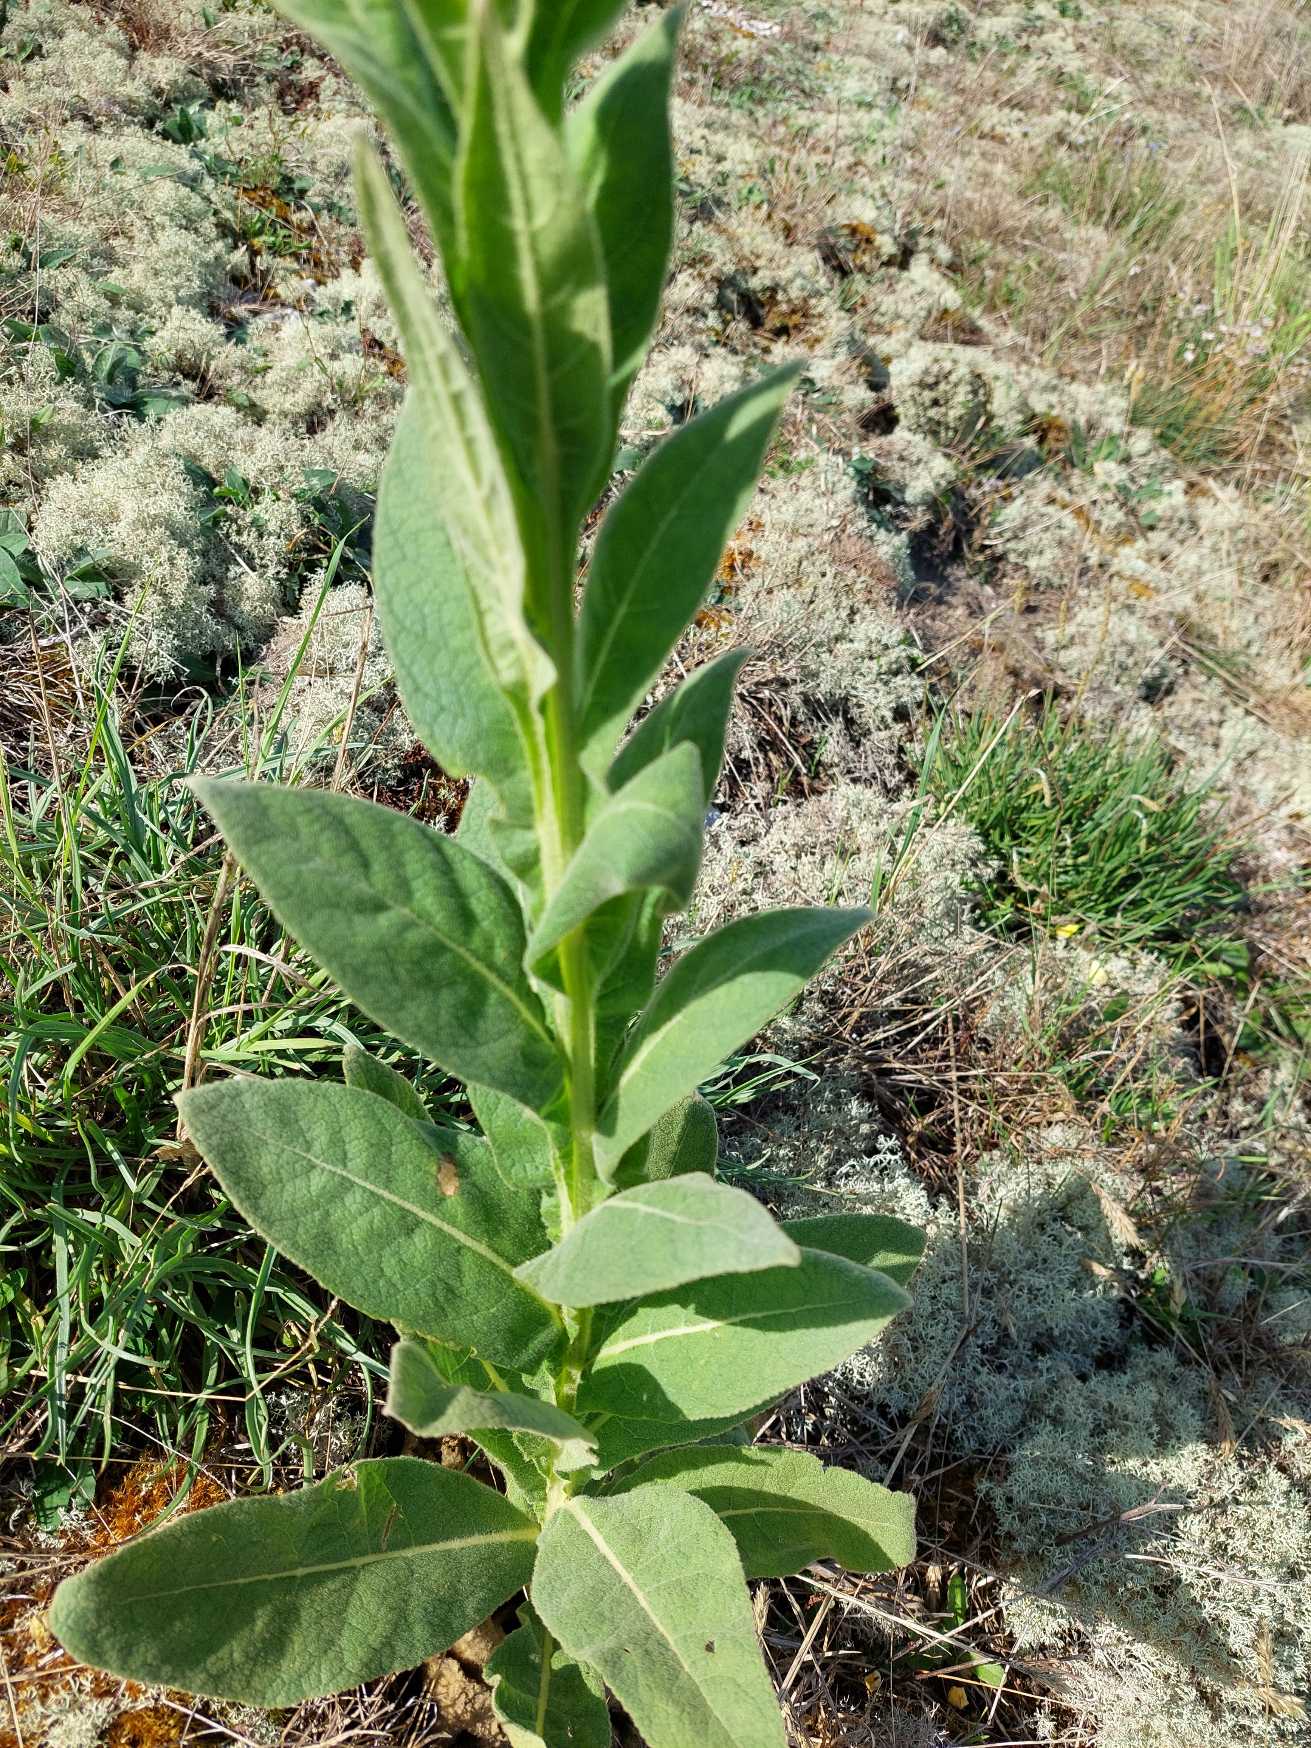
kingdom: Plantae
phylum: Tracheophyta
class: Magnoliopsida
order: Lamiales
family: Scrophulariaceae
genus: Verbascum
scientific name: Verbascum thapsus
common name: Filtbladet kongelys
